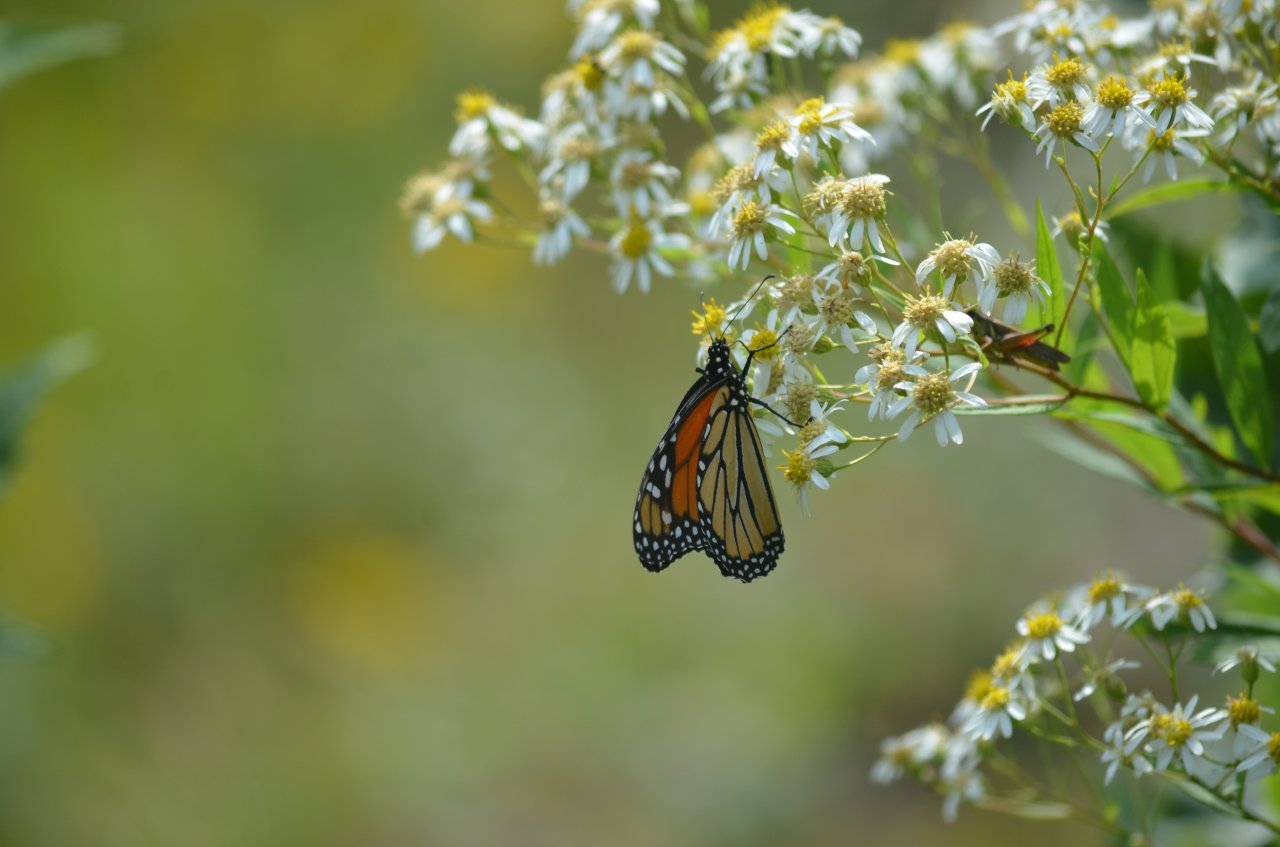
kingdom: Animalia
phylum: Arthropoda
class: Insecta
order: Lepidoptera
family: Nymphalidae
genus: Danaus
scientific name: Danaus plexippus
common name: Monarch
